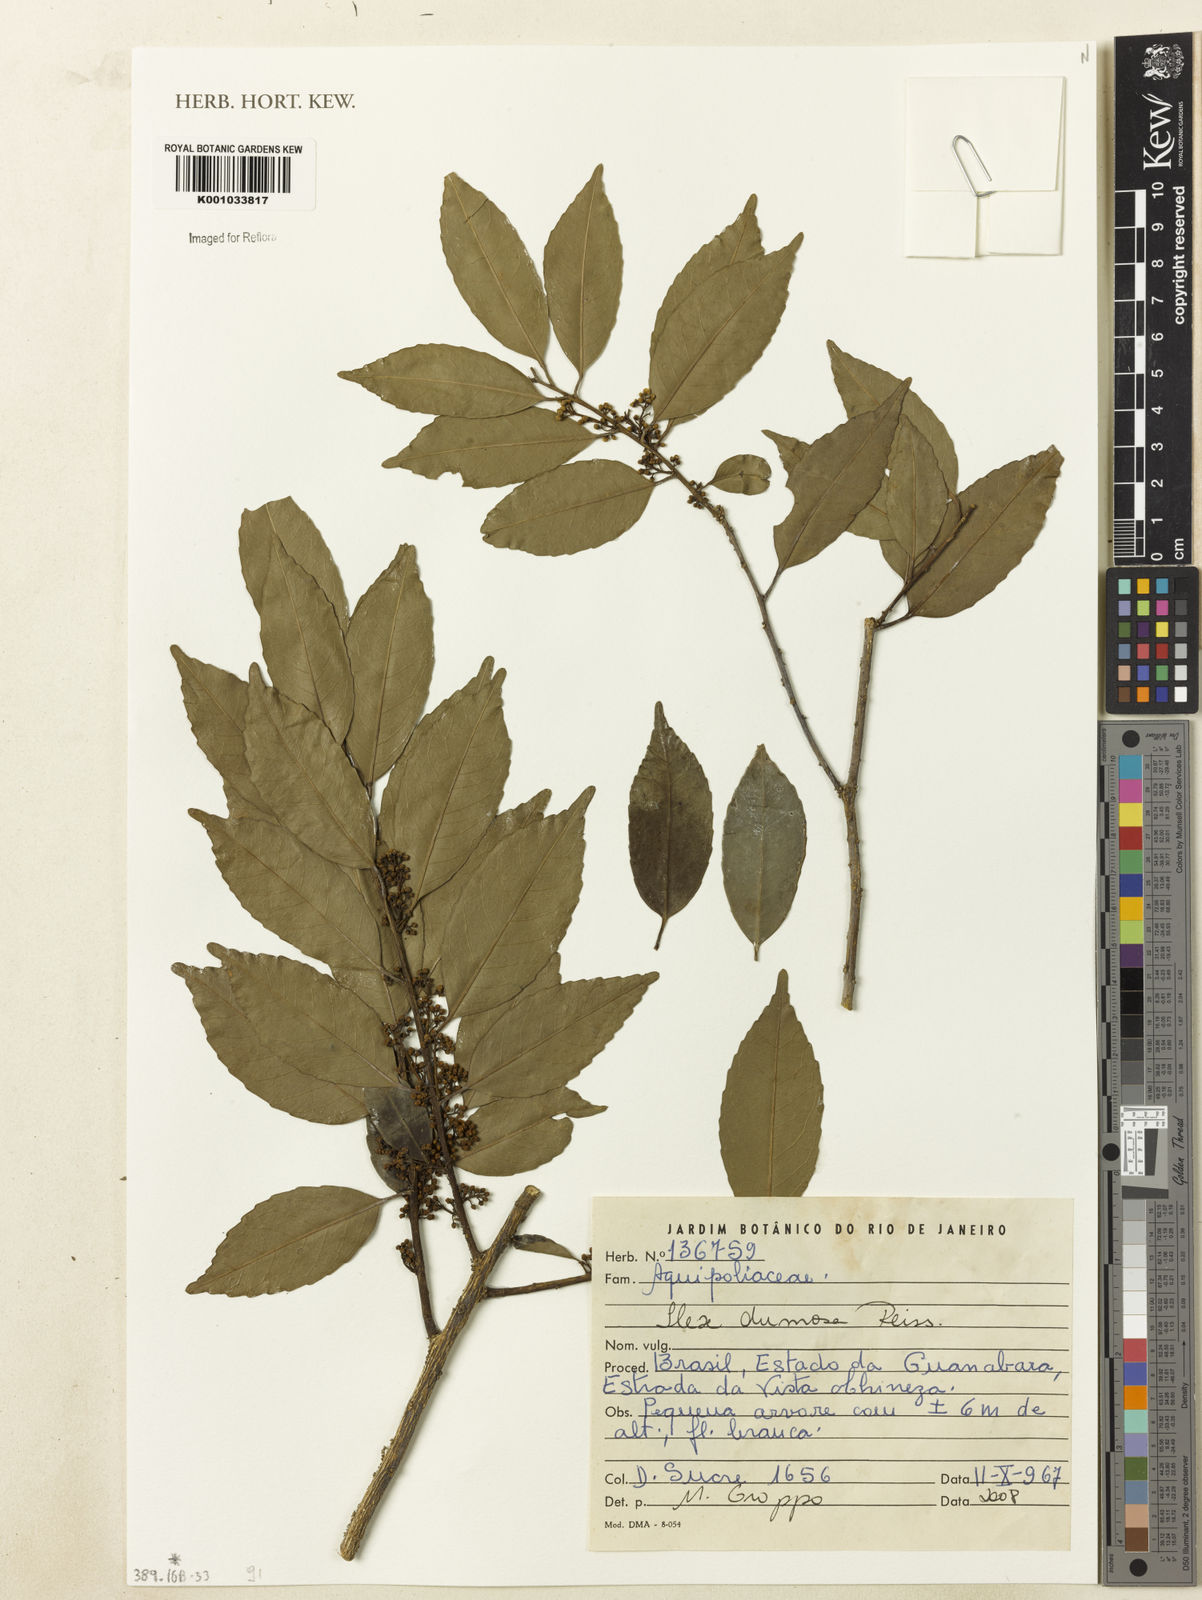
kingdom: Plantae
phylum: Tracheophyta
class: Magnoliopsida
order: Aquifoliales
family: Aquifoliaceae
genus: Ilex
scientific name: Ilex dumosa
